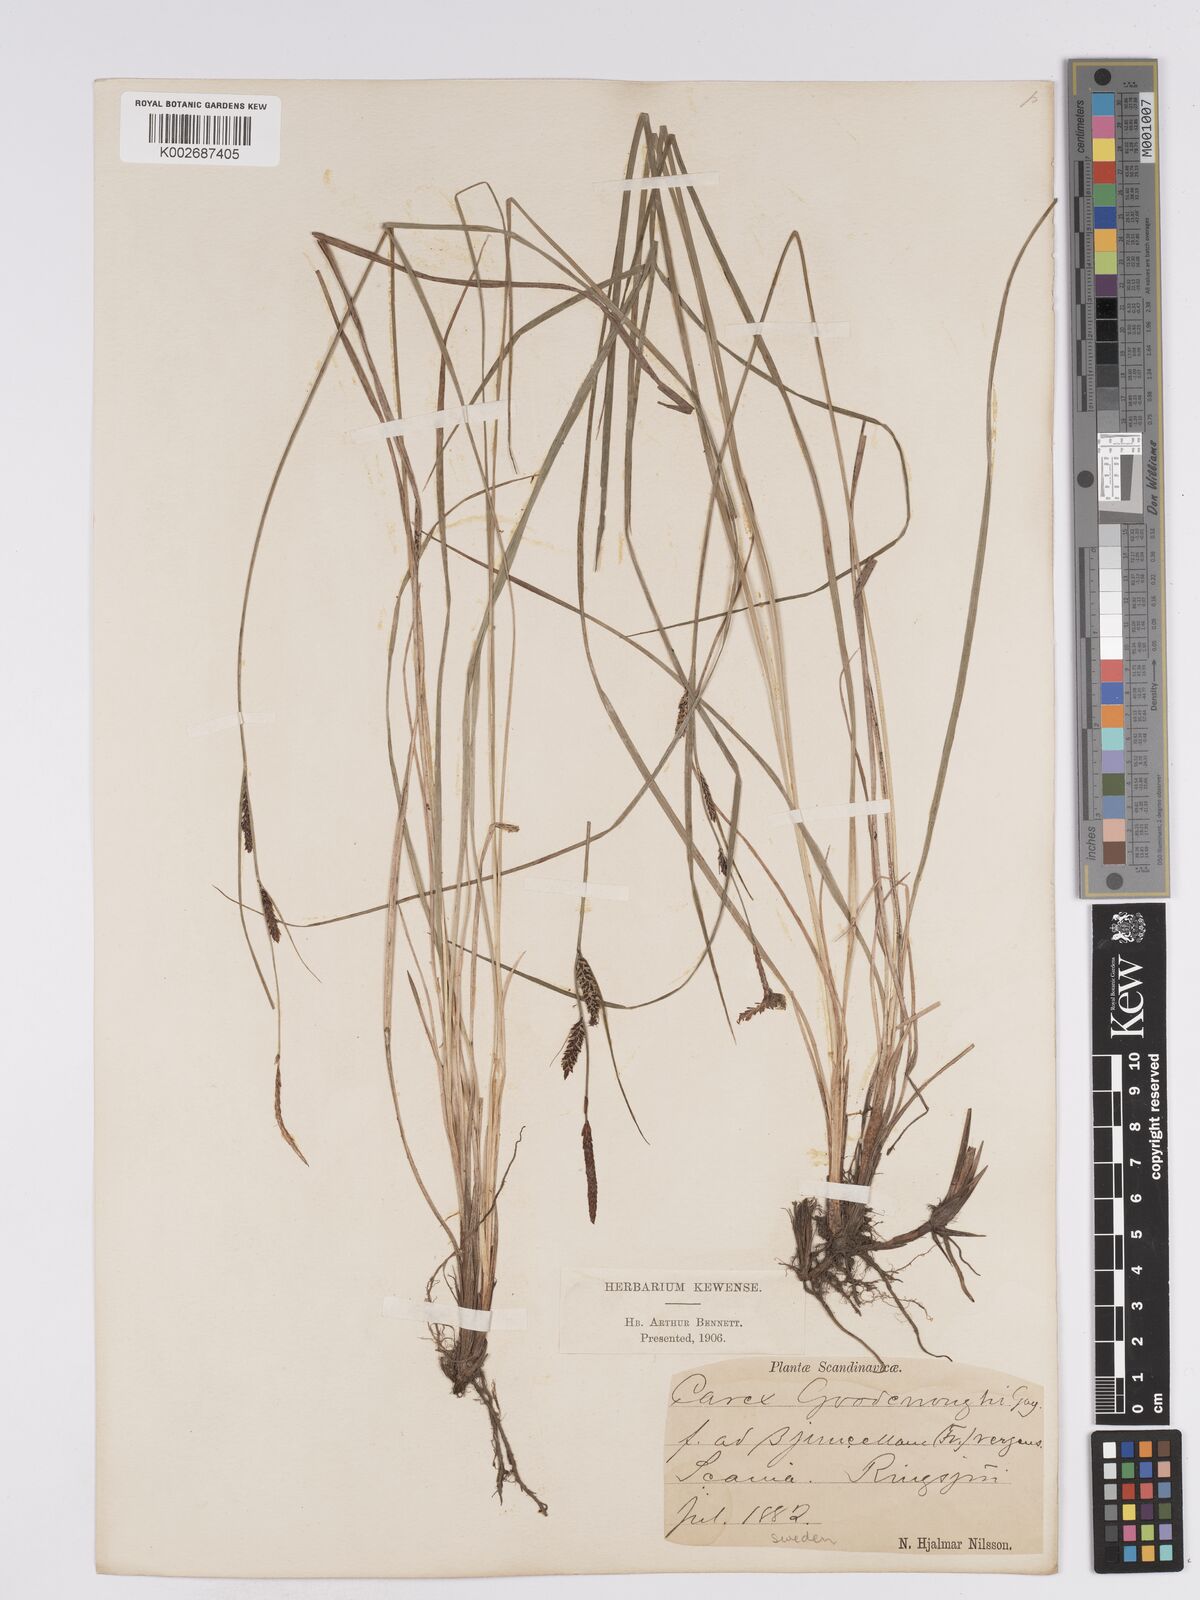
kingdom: Plantae
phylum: Tracheophyta
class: Liliopsida
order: Poales
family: Cyperaceae
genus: Carex
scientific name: Carex nigra
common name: Common sedge
